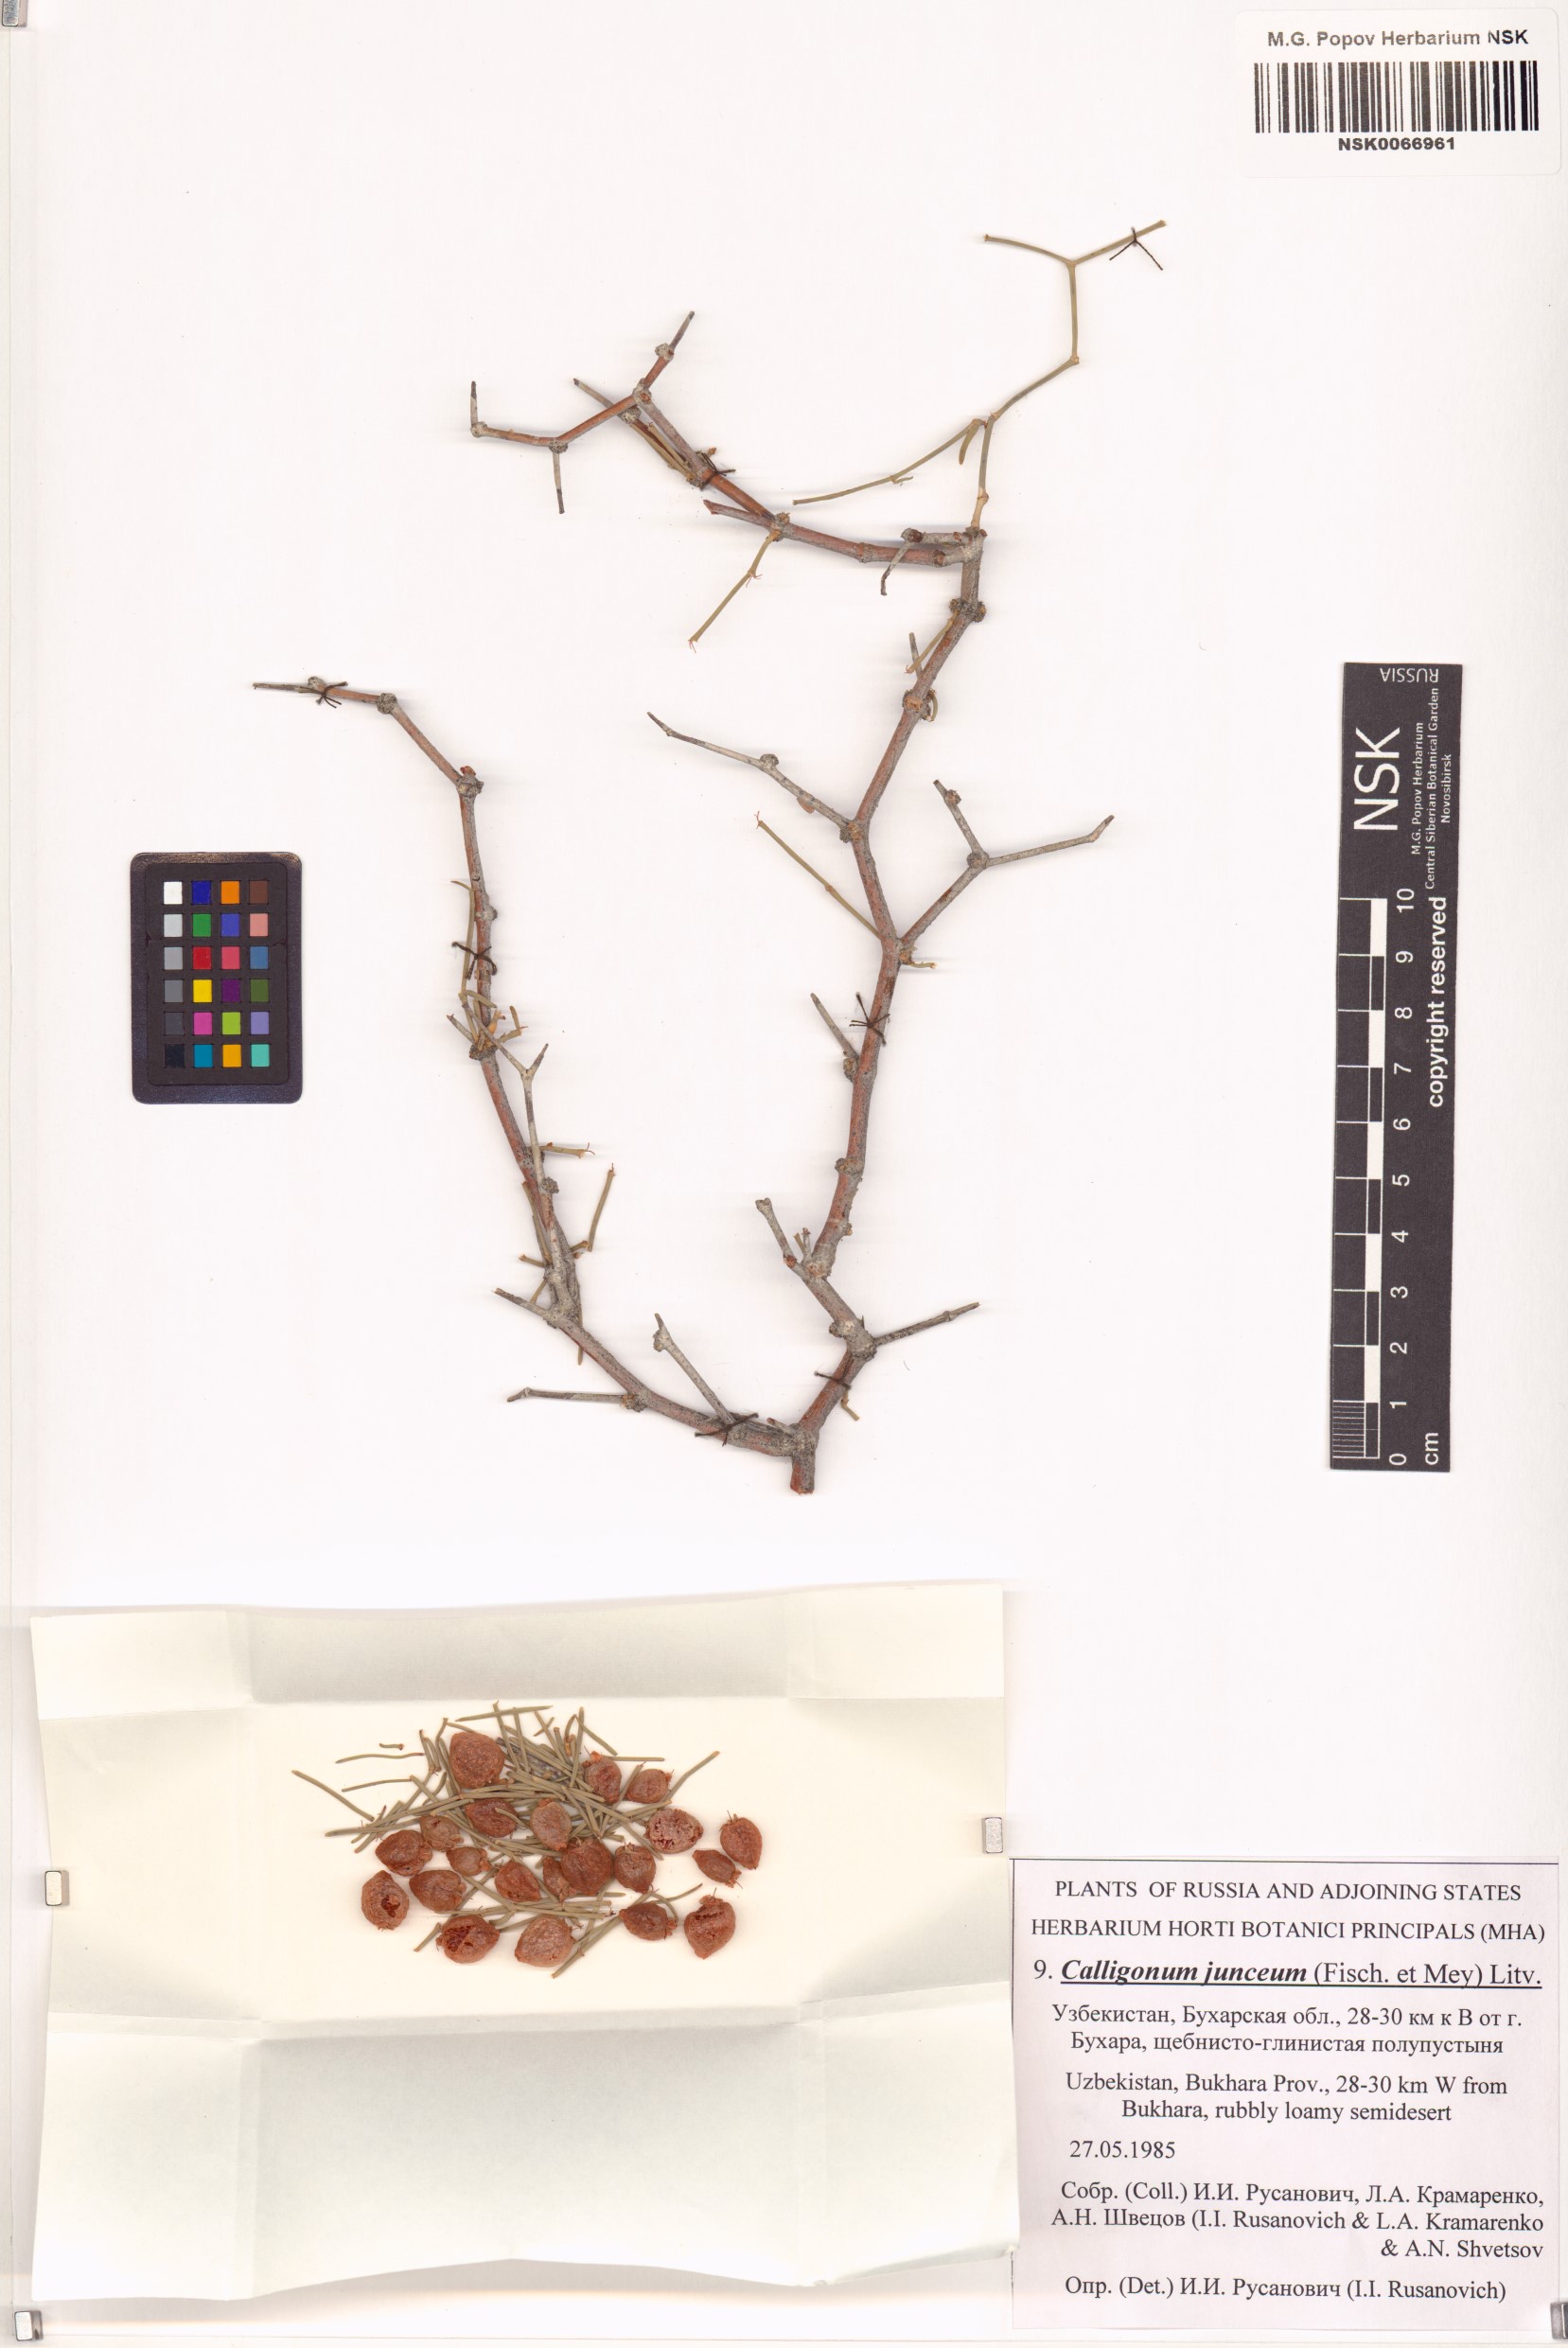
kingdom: Plantae
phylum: Tracheophyta
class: Magnoliopsida
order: Caryophyllales
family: Polygonaceae
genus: Calligonum
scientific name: Calligonum junceum
